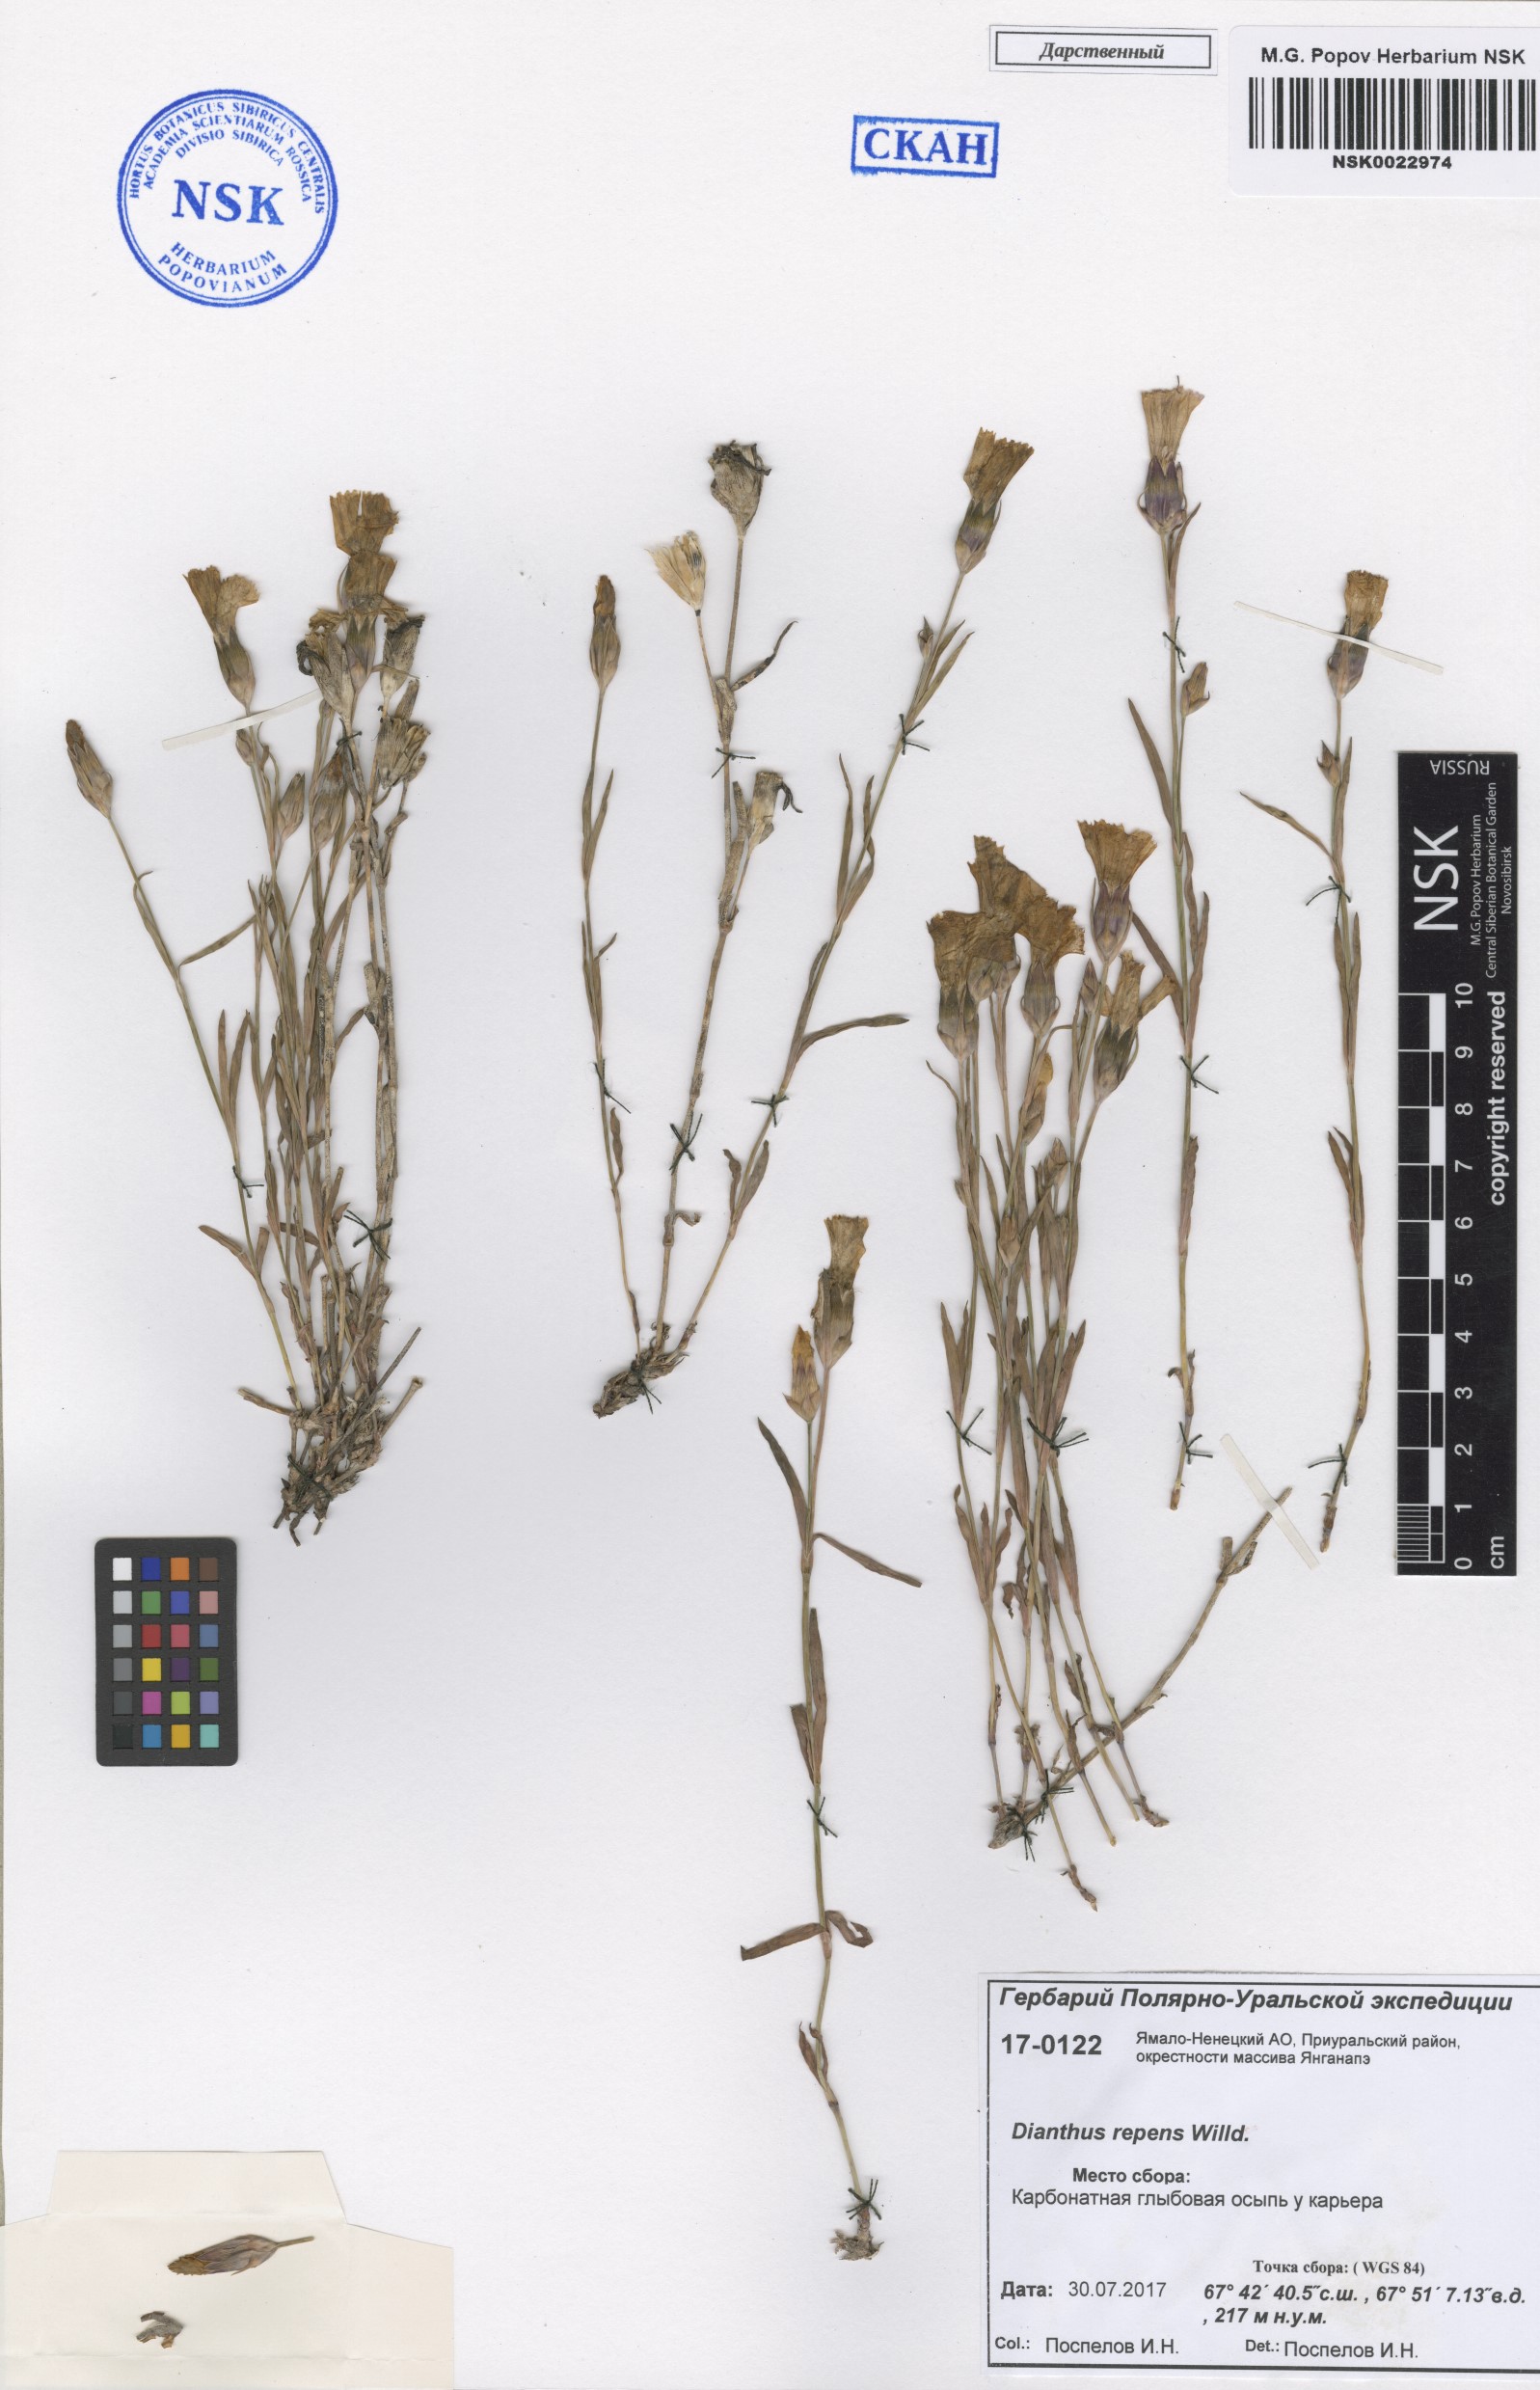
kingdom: Plantae
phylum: Tracheophyta
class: Magnoliopsida
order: Caryophyllales
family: Caryophyllaceae
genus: Dianthus
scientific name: Dianthus repens
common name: Northern pink
